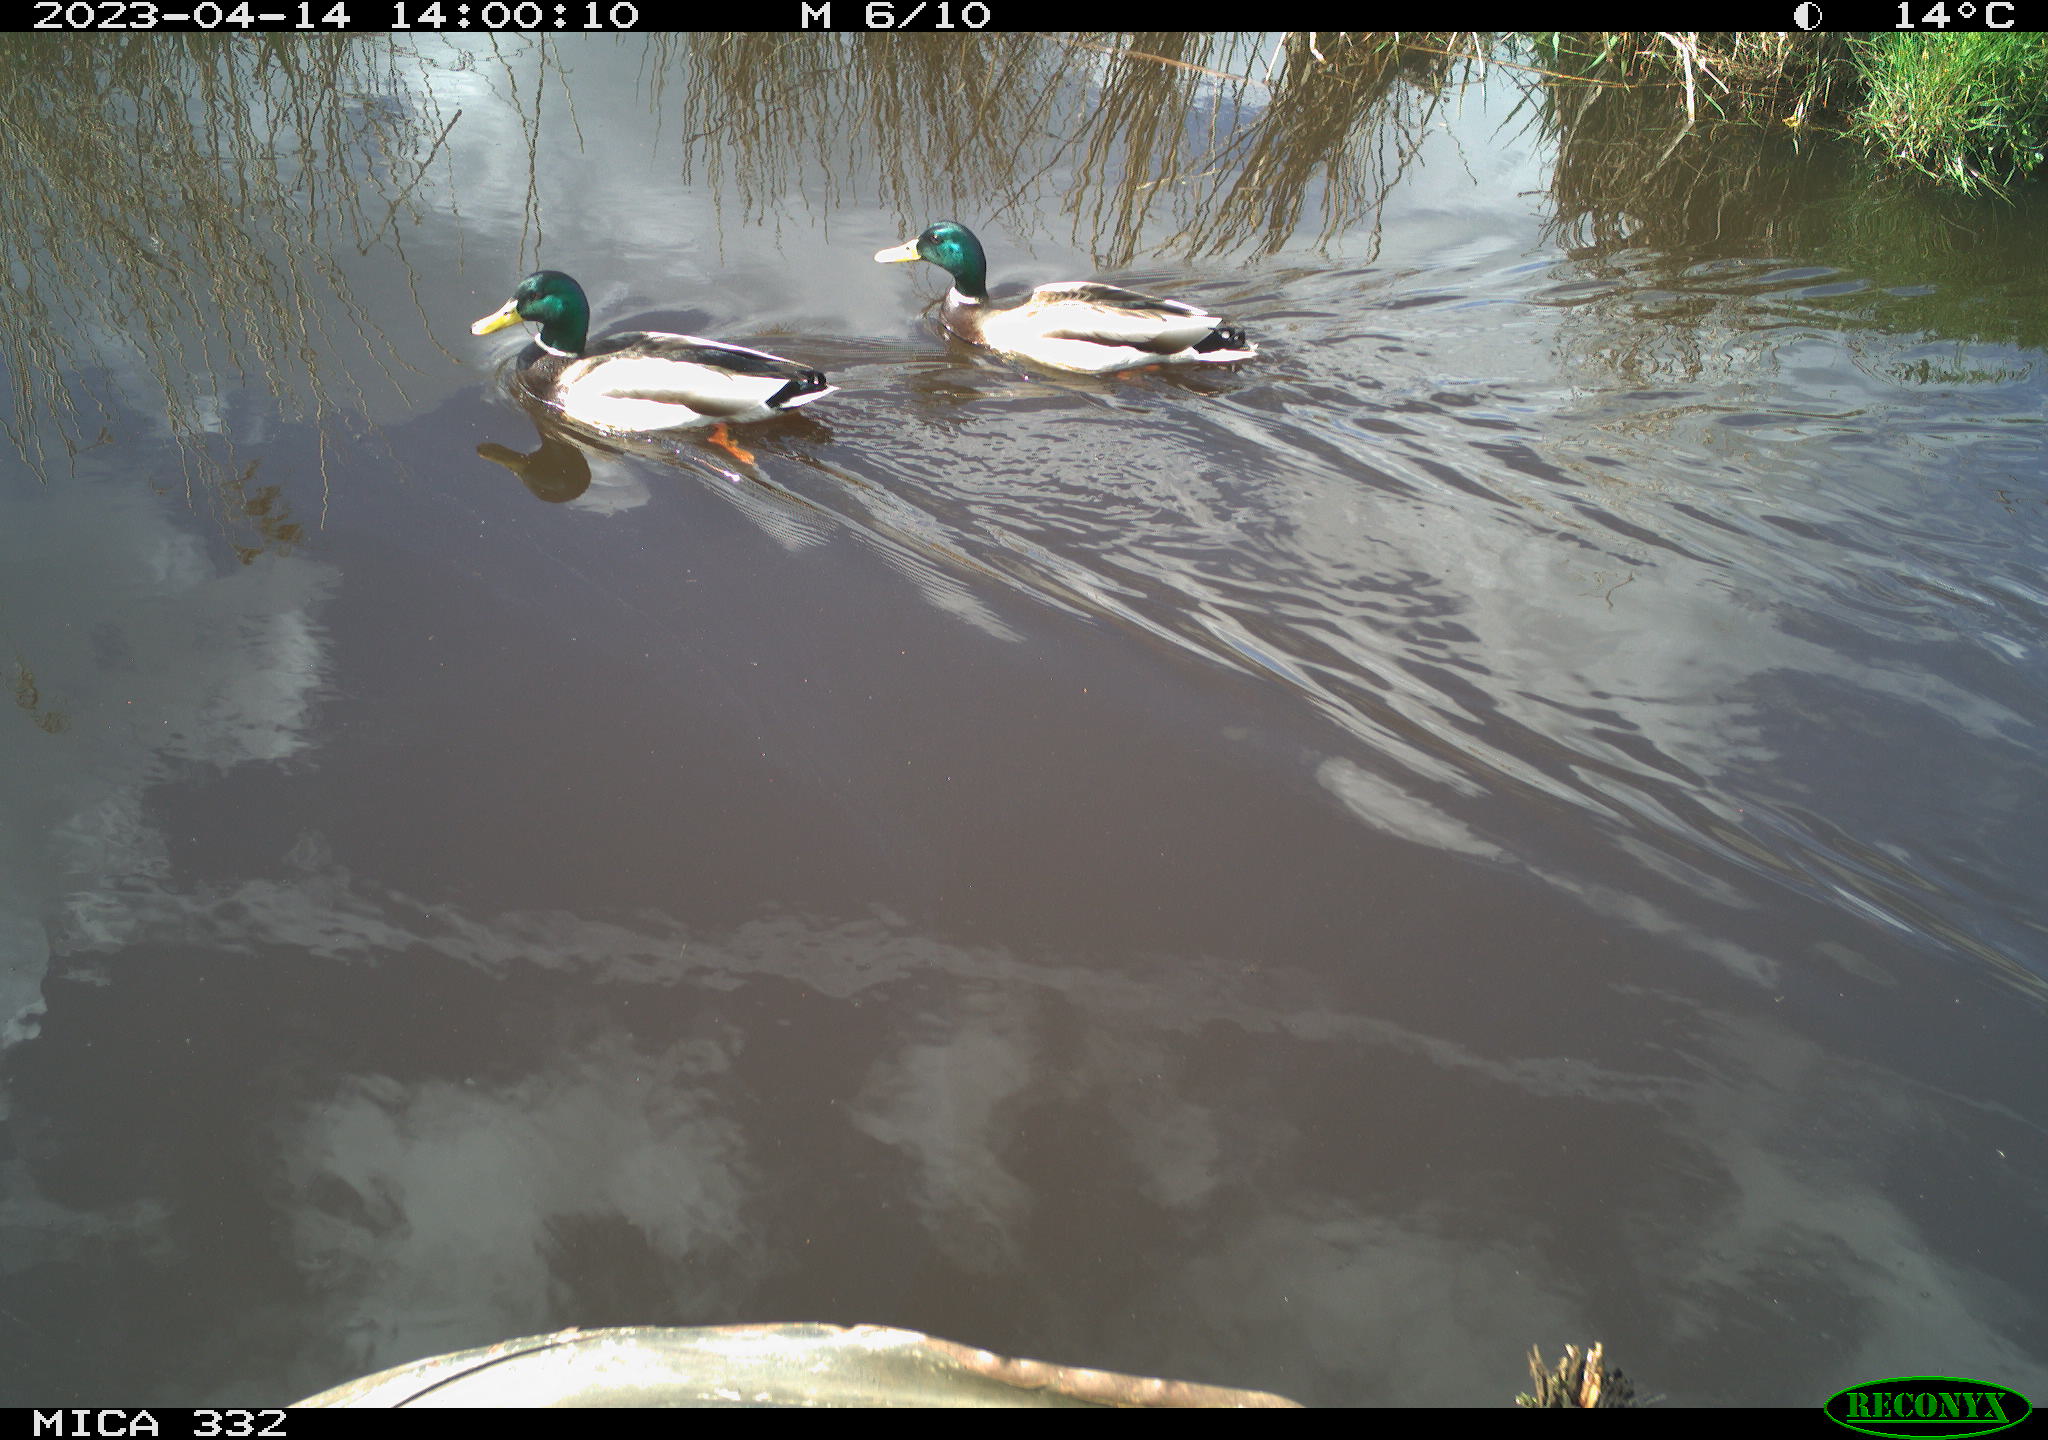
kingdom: Animalia
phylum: Chordata
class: Aves
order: Anseriformes
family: Anatidae
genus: Anas
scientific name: Anas
